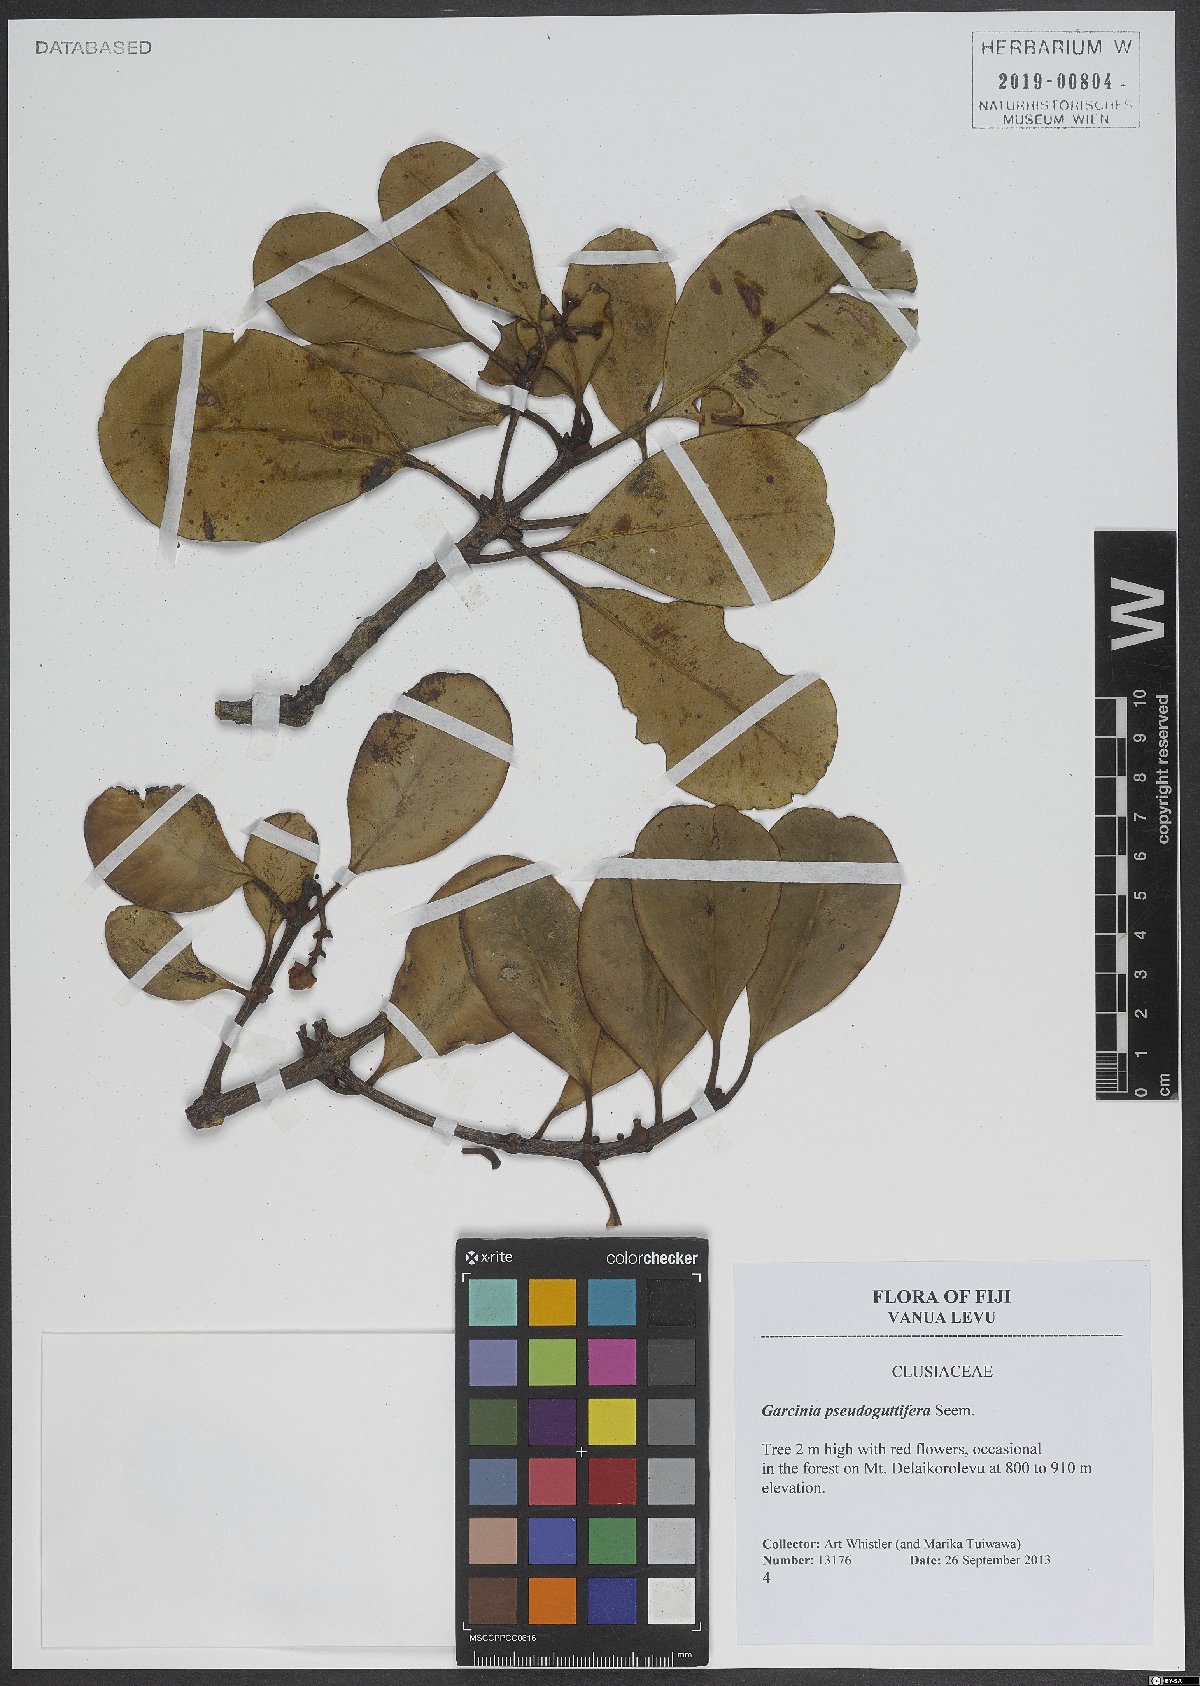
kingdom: Plantae
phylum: Tracheophyta
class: Magnoliopsida
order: Malpighiales
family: Clusiaceae
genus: Garcinia
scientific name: Garcinia pseudoguttifera
